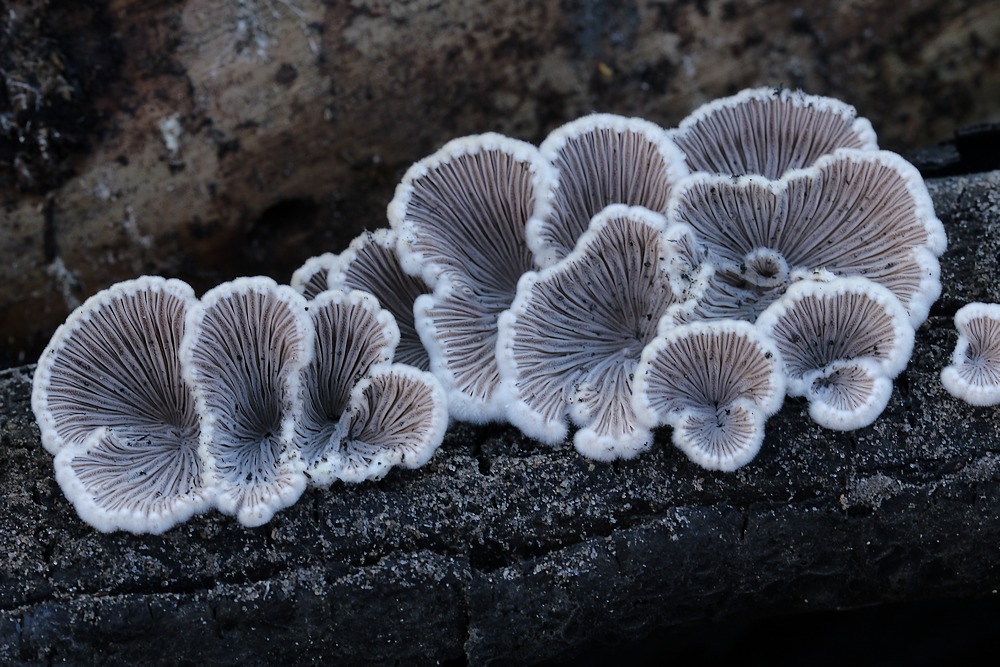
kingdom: Fungi
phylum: Basidiomycota
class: Agaricomycetes
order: Agaricales
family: Schizophyllaceae
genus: Schizophyllum
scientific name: Schizophyllum commune
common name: kløvblad
